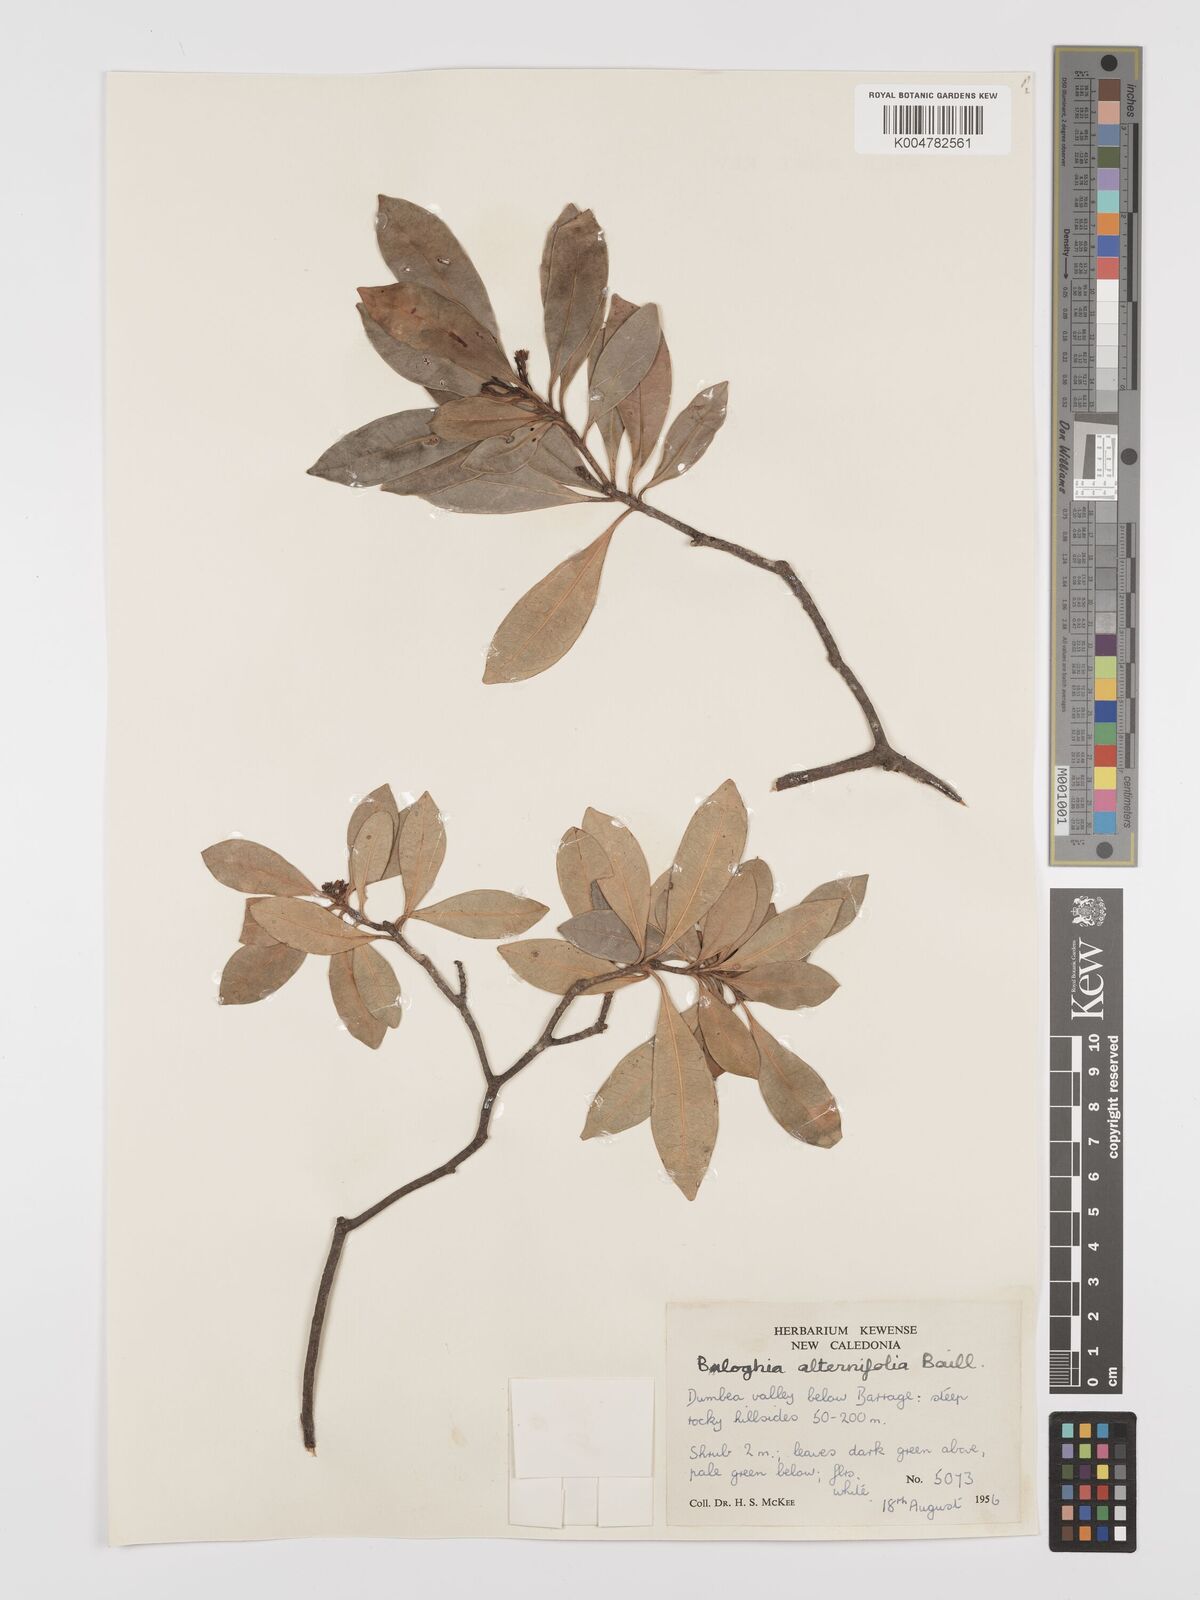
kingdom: Plantae
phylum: Tracheophyta
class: Magnoliopsida
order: Malpighiales
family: Euphorbiaceae
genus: Baloghia
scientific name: Baloghia alternifolia
